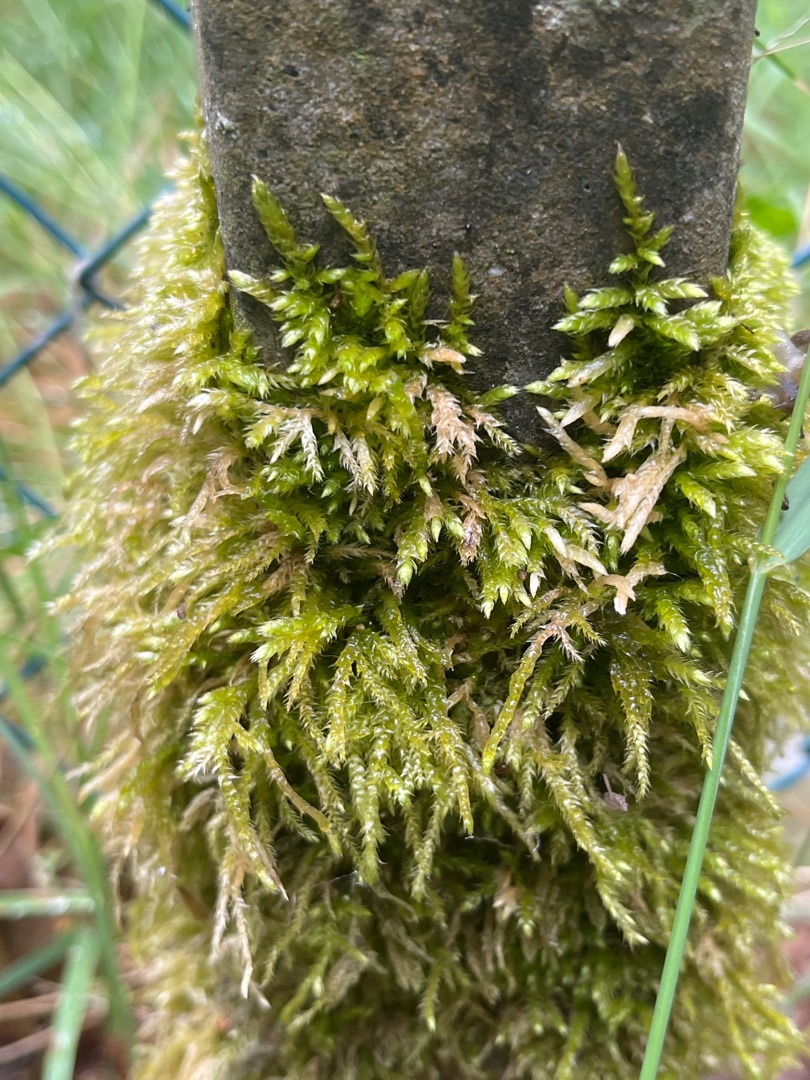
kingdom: Plantae
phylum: Bryophyta
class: Bryopsida
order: Hypnales
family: Brachytheciaceae
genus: Brachythecium
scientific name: Brachythecium rutabulum
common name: Almindelig kortkapsel
